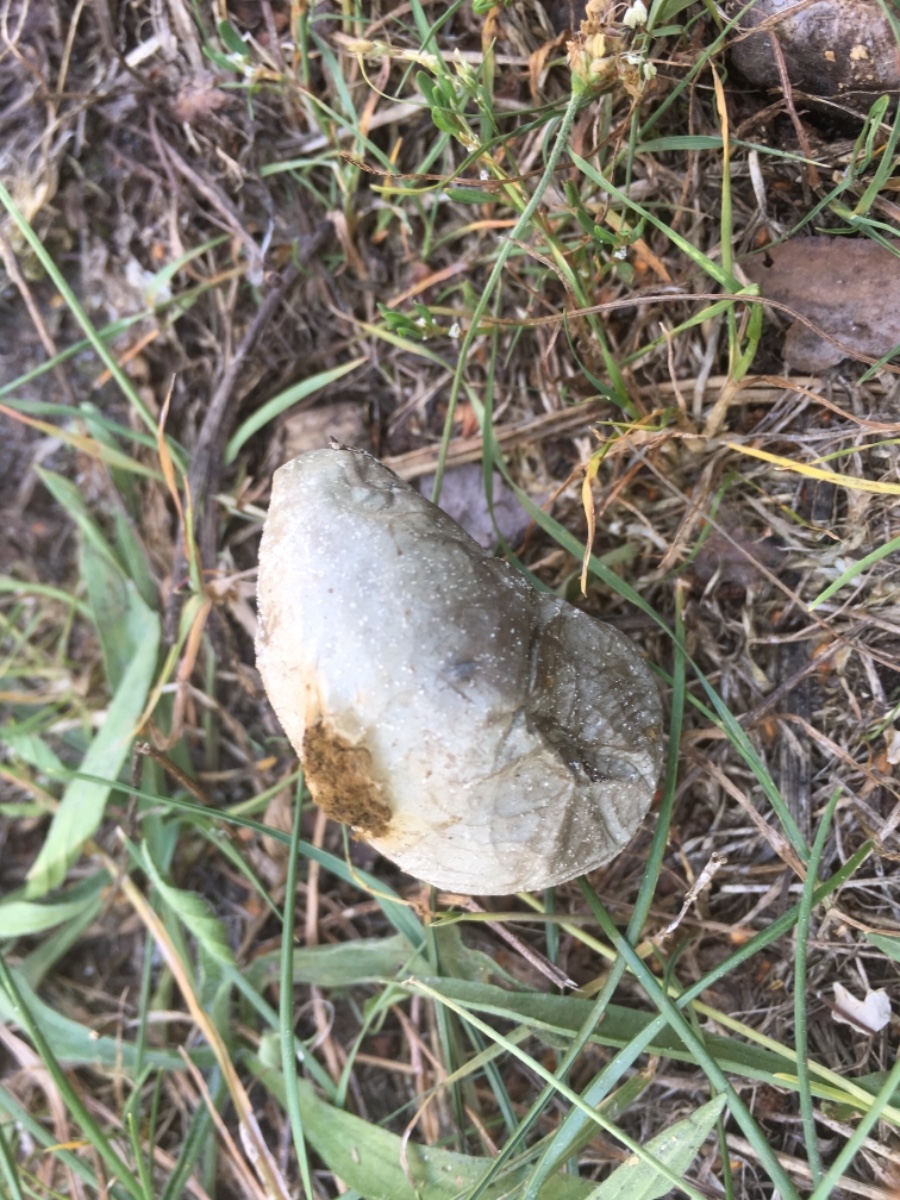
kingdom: Fungi
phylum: Basidiomycota
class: Agaricomycetes
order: Agaricales
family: Lycoperdaceae
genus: Bovista
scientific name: Bovista plumbea
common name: blygrå bovist
